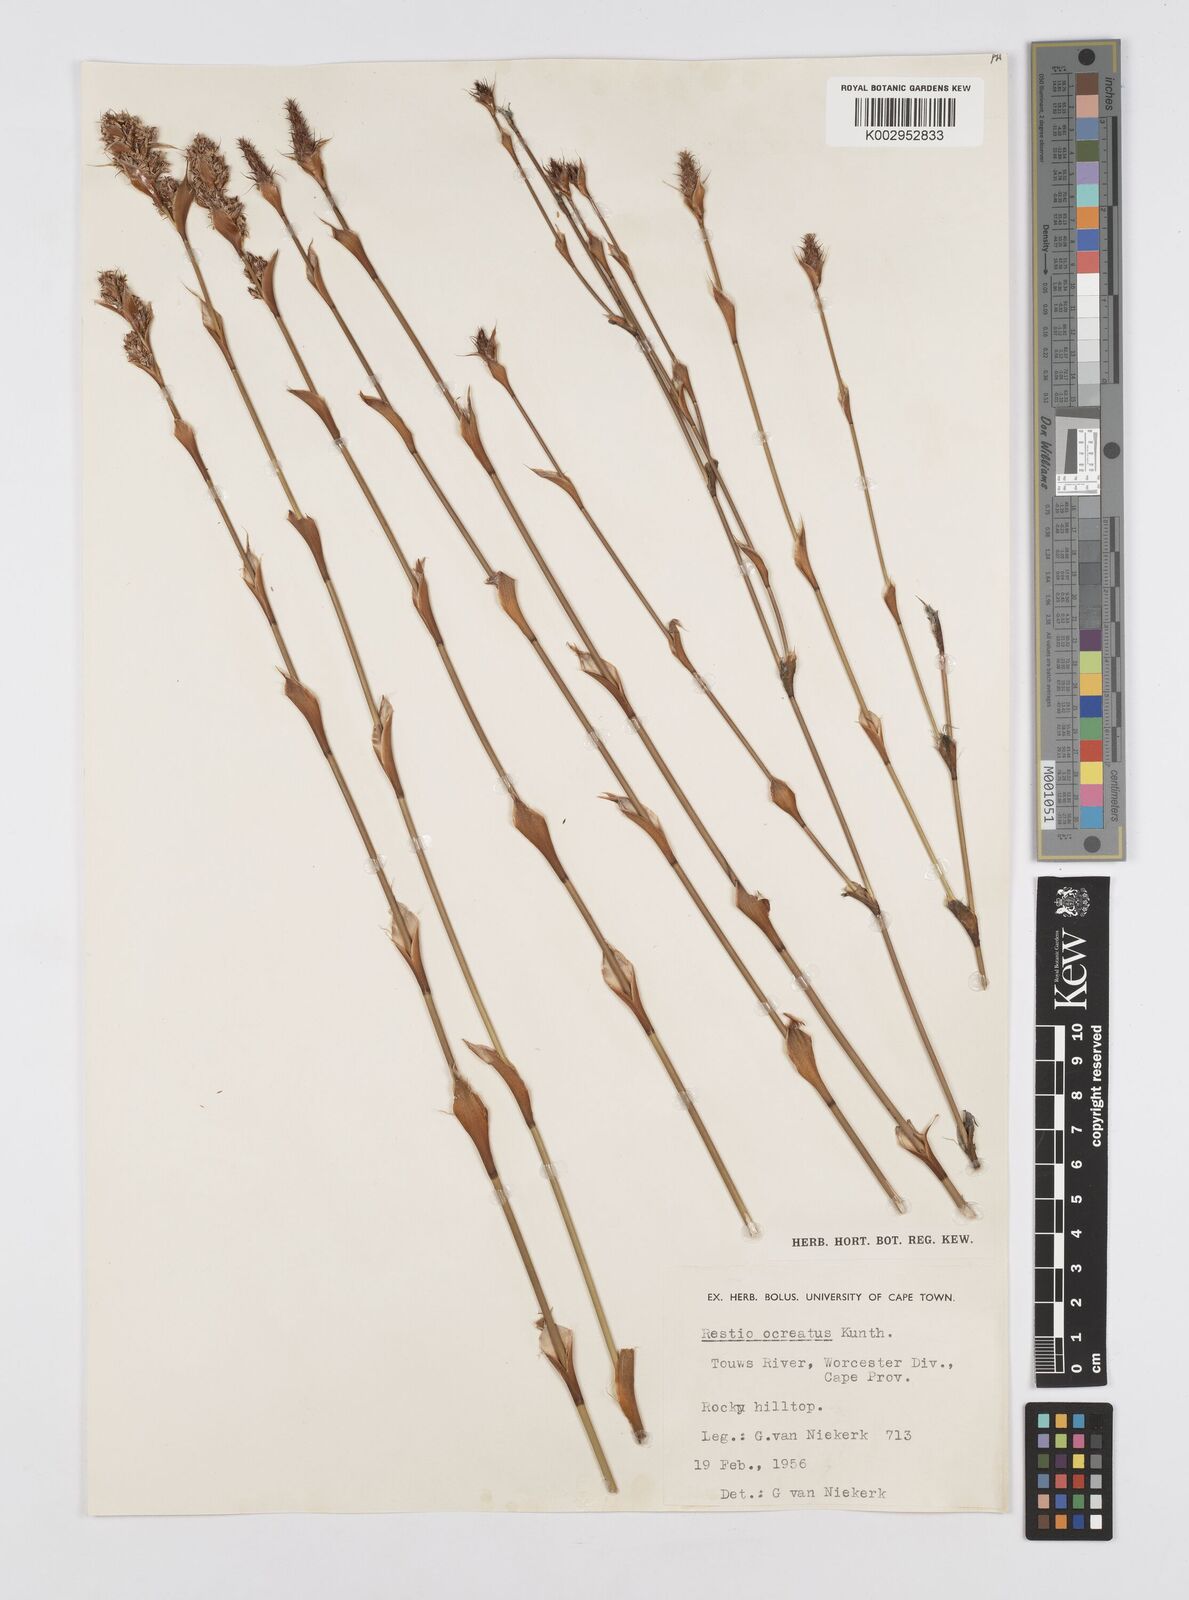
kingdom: Plantae
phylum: Tracheophyta
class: Liliopsida
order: Poales
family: Restionaceae
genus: Restio
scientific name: Restio ocreatus
